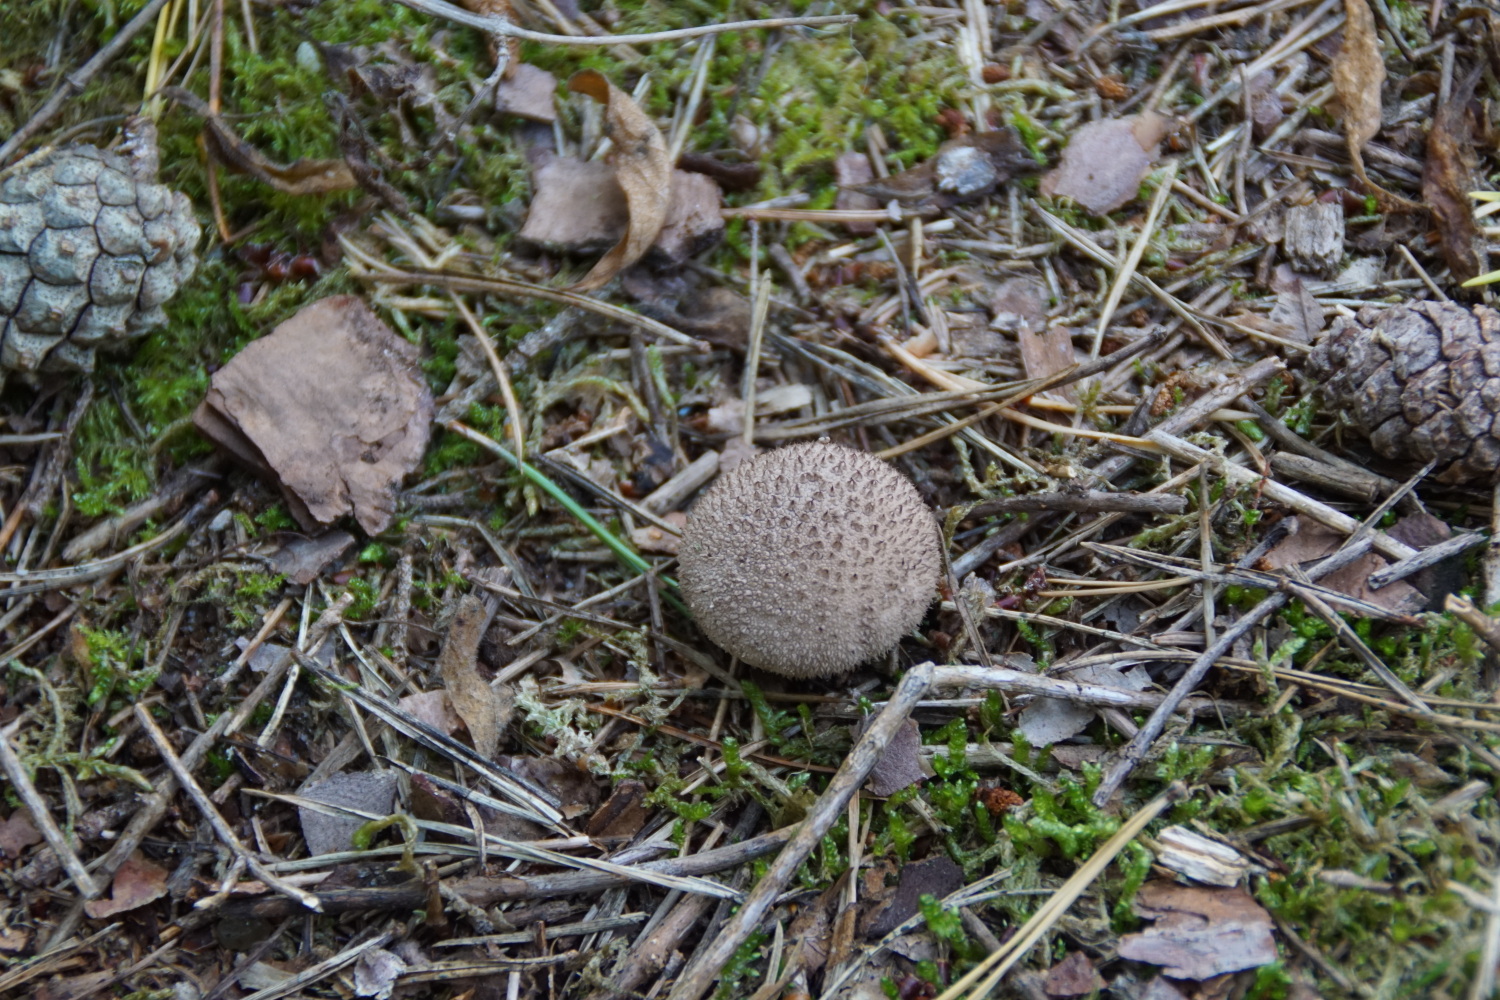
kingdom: Fungi
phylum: Basidiomycota
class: Agaricomycetes
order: Agaricales
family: Lycoperdaceae
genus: Lycoperdon
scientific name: Lycoperdon nigrescens
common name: sortagtig støvbold
